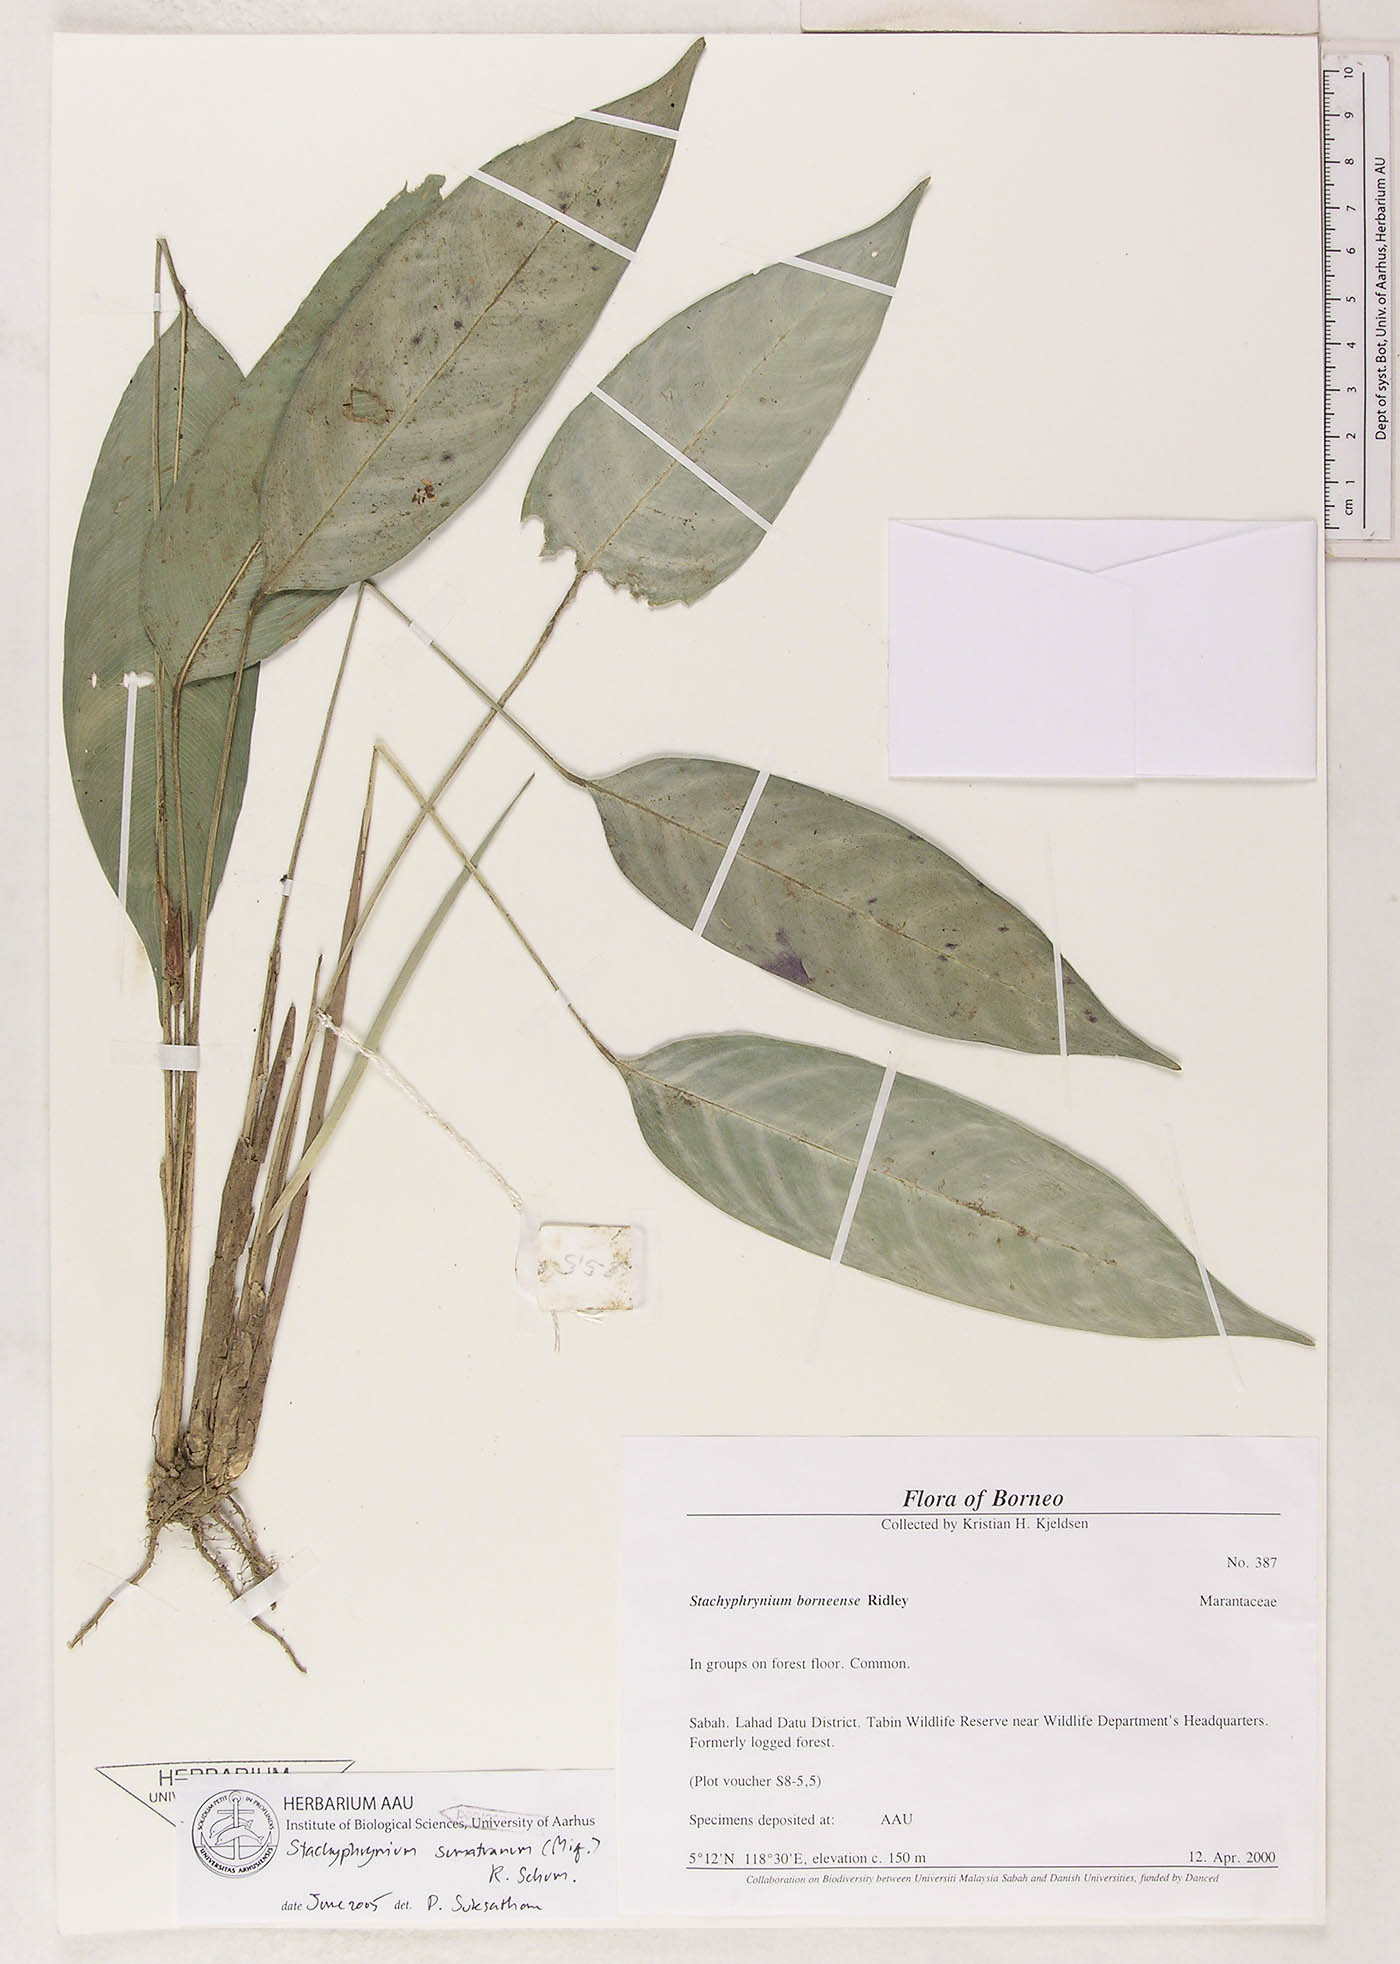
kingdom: Plantae
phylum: Tracheophyta
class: Liliopsida
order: Zingiberales
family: Marantaceae
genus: Stachyphrynium
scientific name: Stachyphrynium sumatranum
